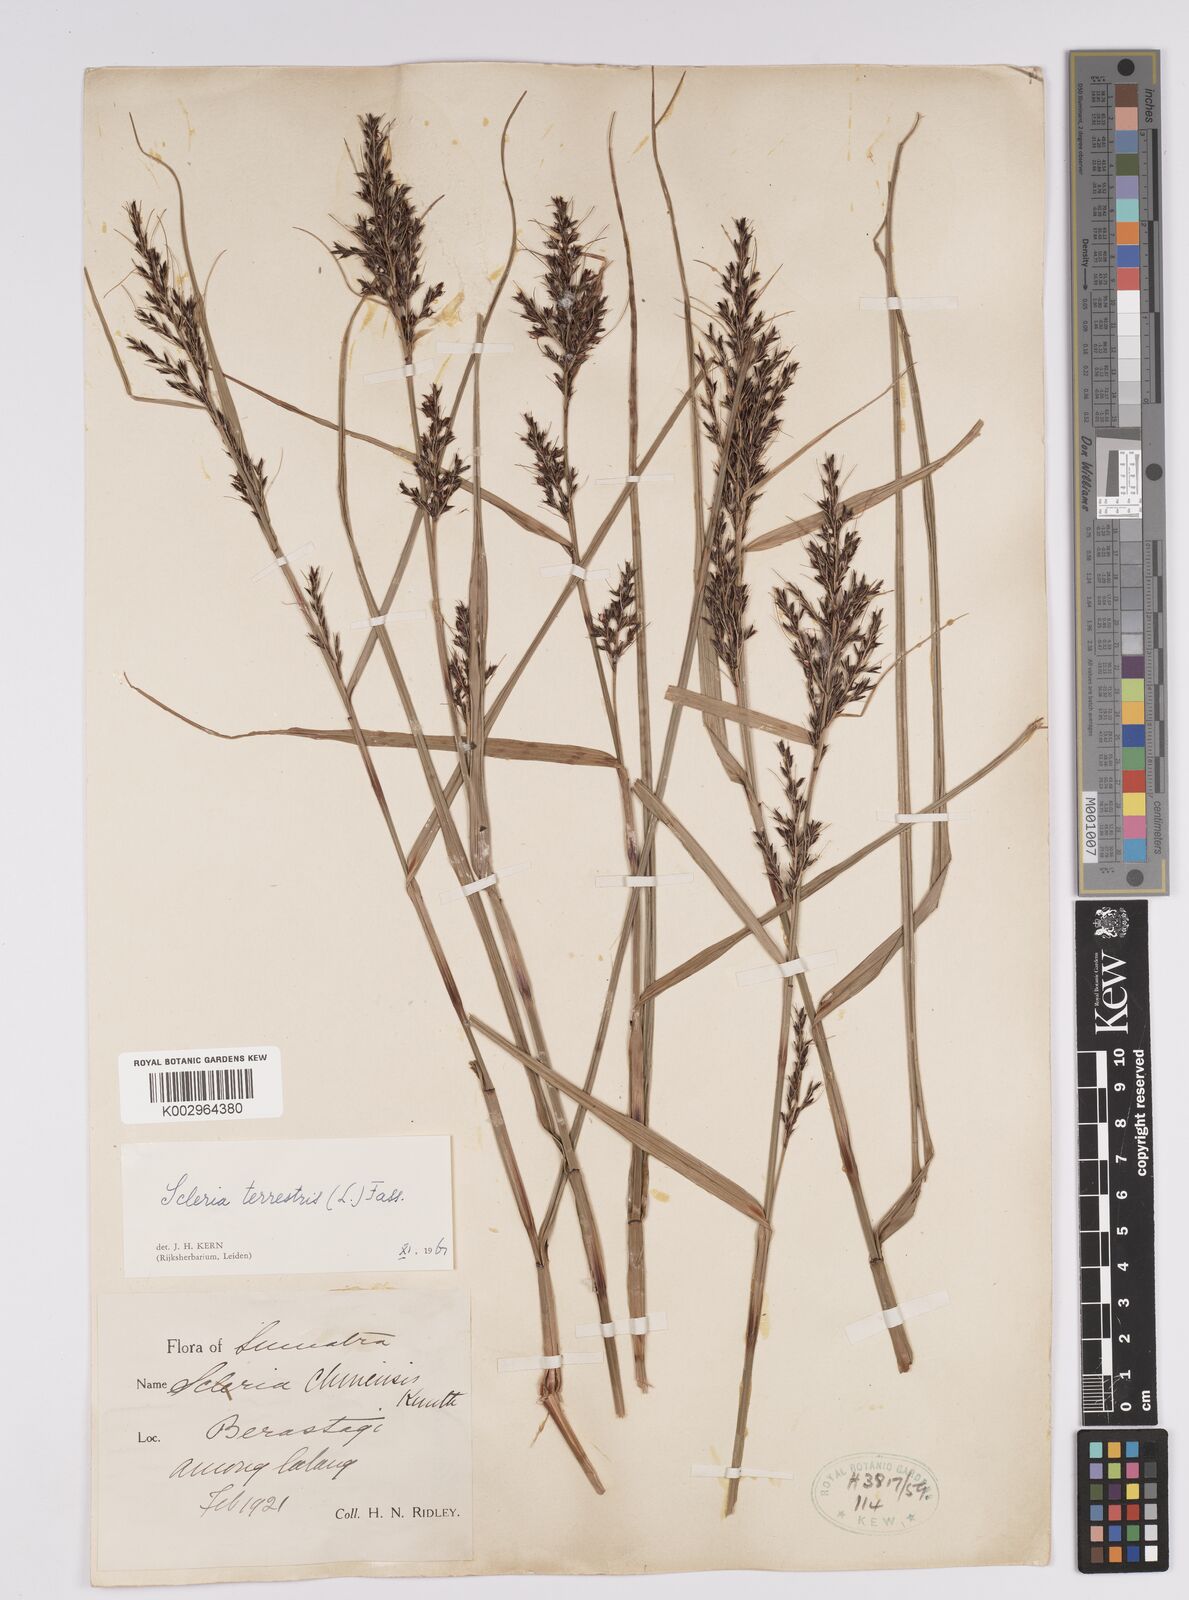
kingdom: Plantae
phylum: Tracheophyta
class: Liliopsida
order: Poales
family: Cyperaceae
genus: Scleria
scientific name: Scleria terrestris
